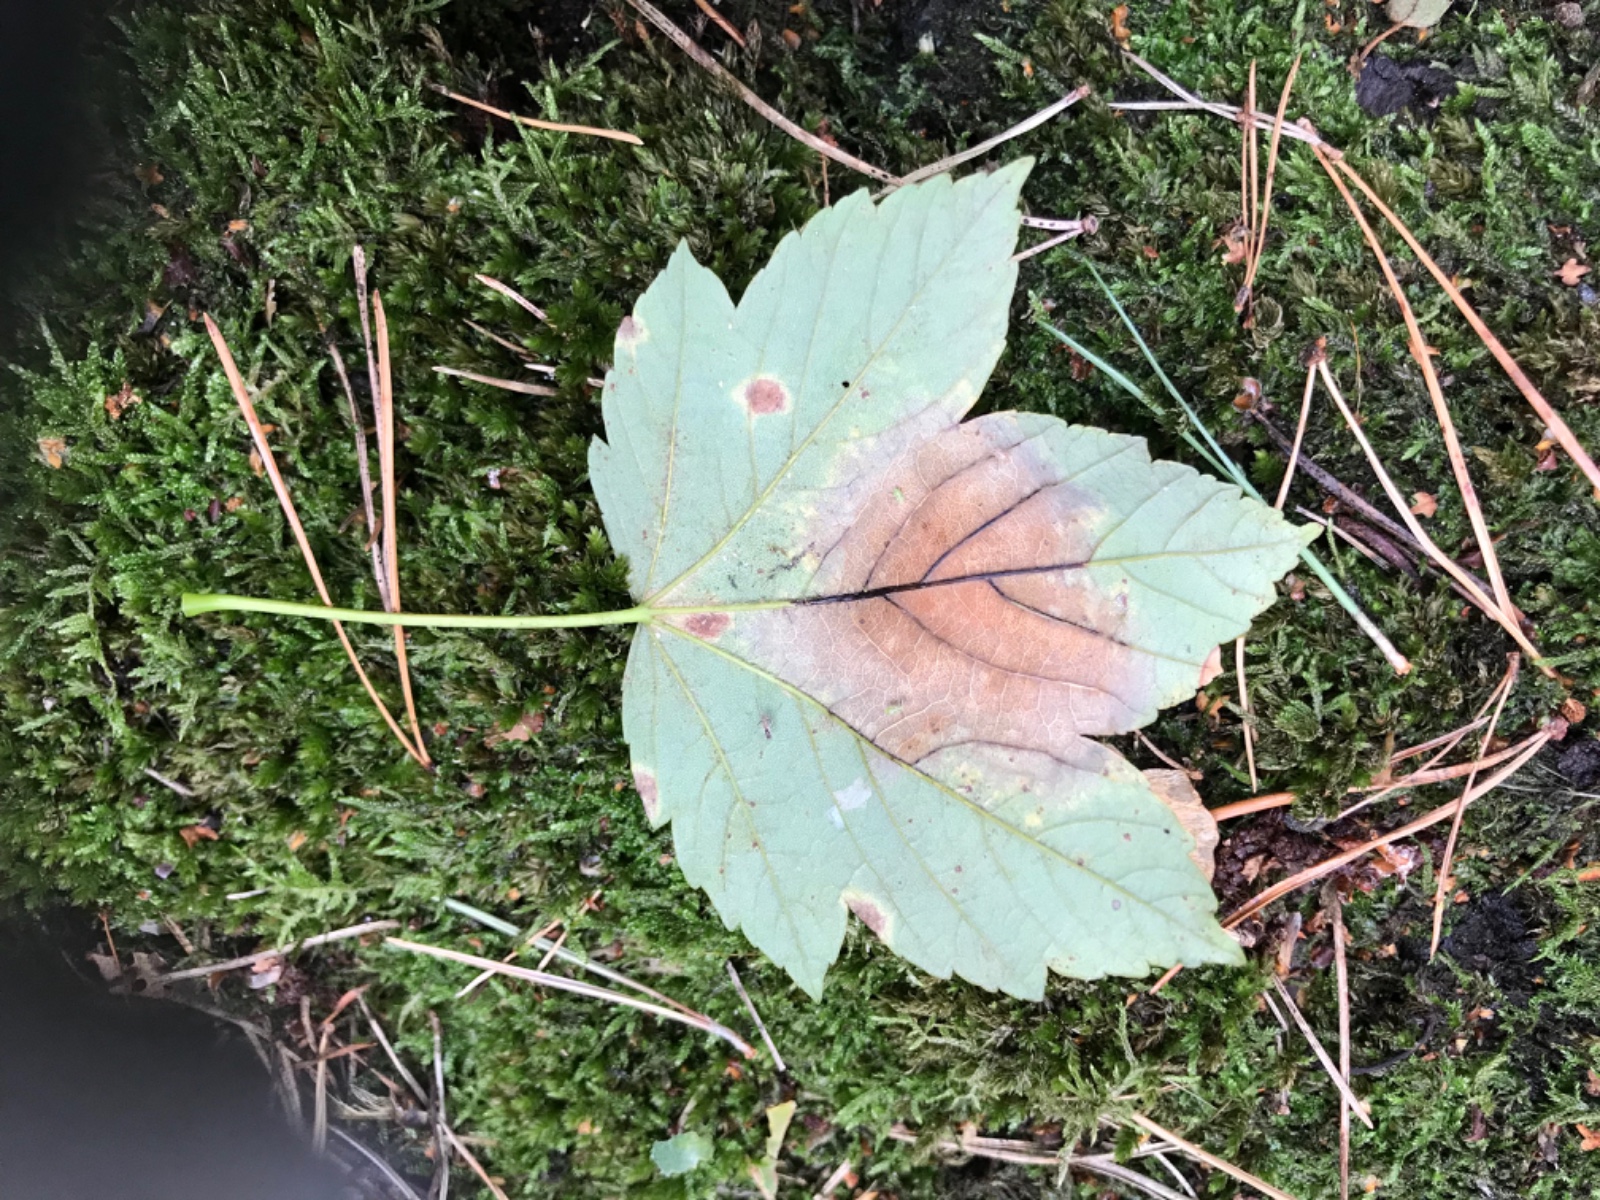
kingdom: Fungi
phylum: Ascomycota
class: Sordariomycetes
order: Diaporthales
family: Gnomoniaceae
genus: Pleuroceras
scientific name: Pleuroceras pseudoplatani
